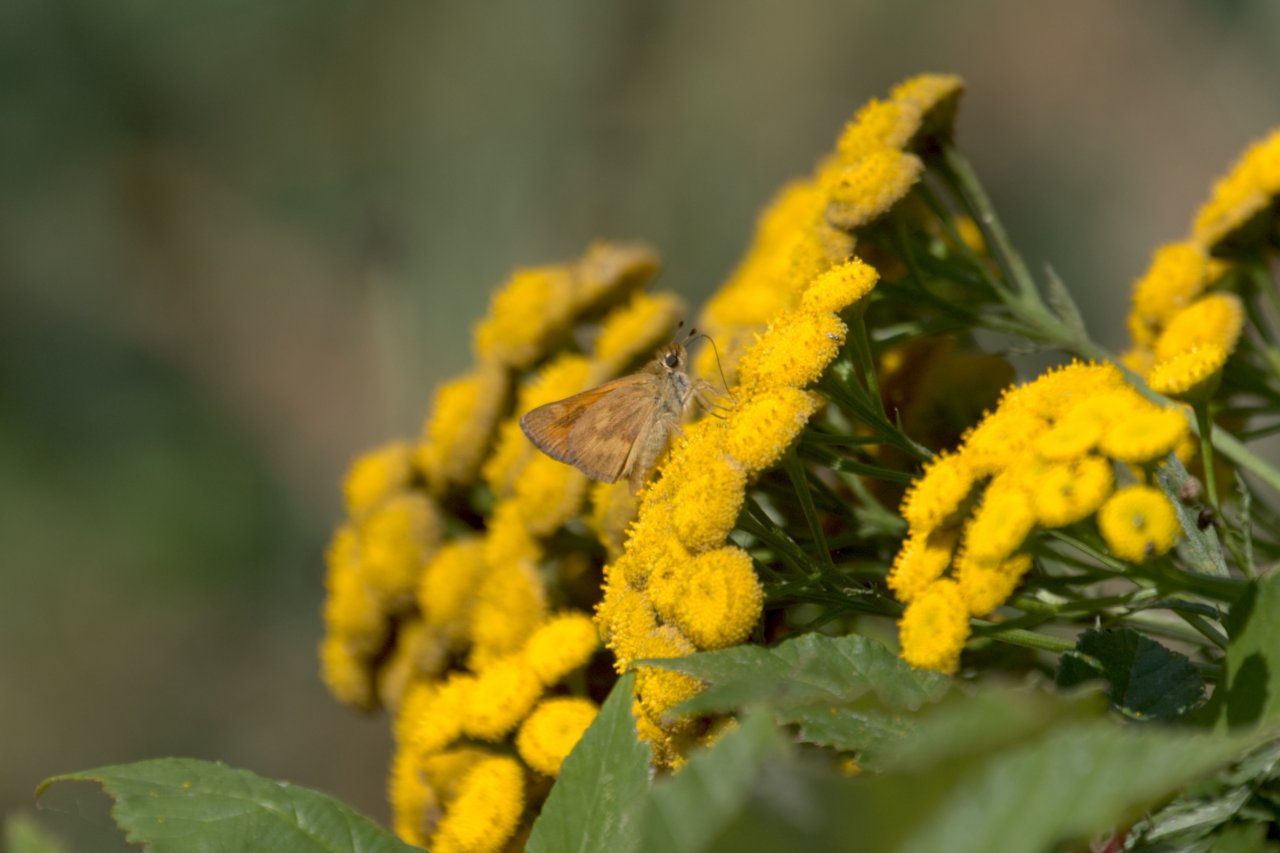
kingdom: Animalia
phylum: Arthropoda
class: Insecta
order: Lepidoptera
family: Hesperiidae
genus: Ochlodes
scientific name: Ochlodes sylvanoides
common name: Woodland Skipper
